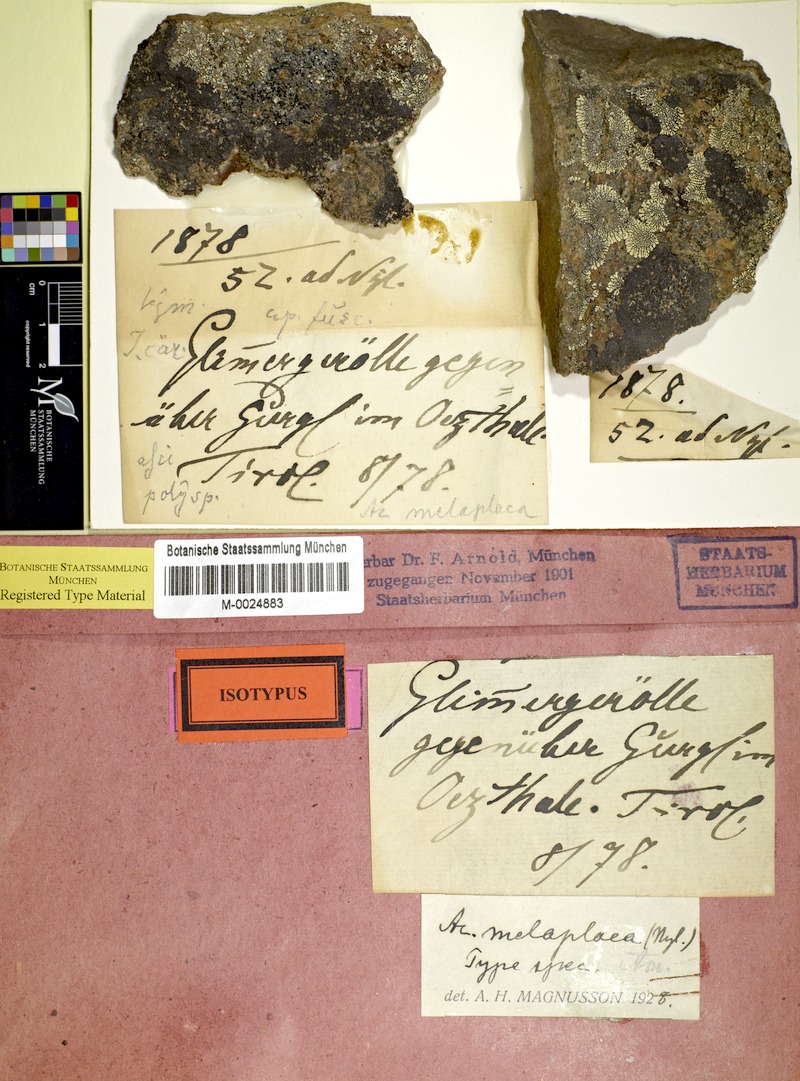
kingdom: Fungi
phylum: Ascomycota
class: Lecanoromycetes
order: Acarosporales
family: Acarosporaceae
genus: Acarospora
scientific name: Acarospora melaplaca
